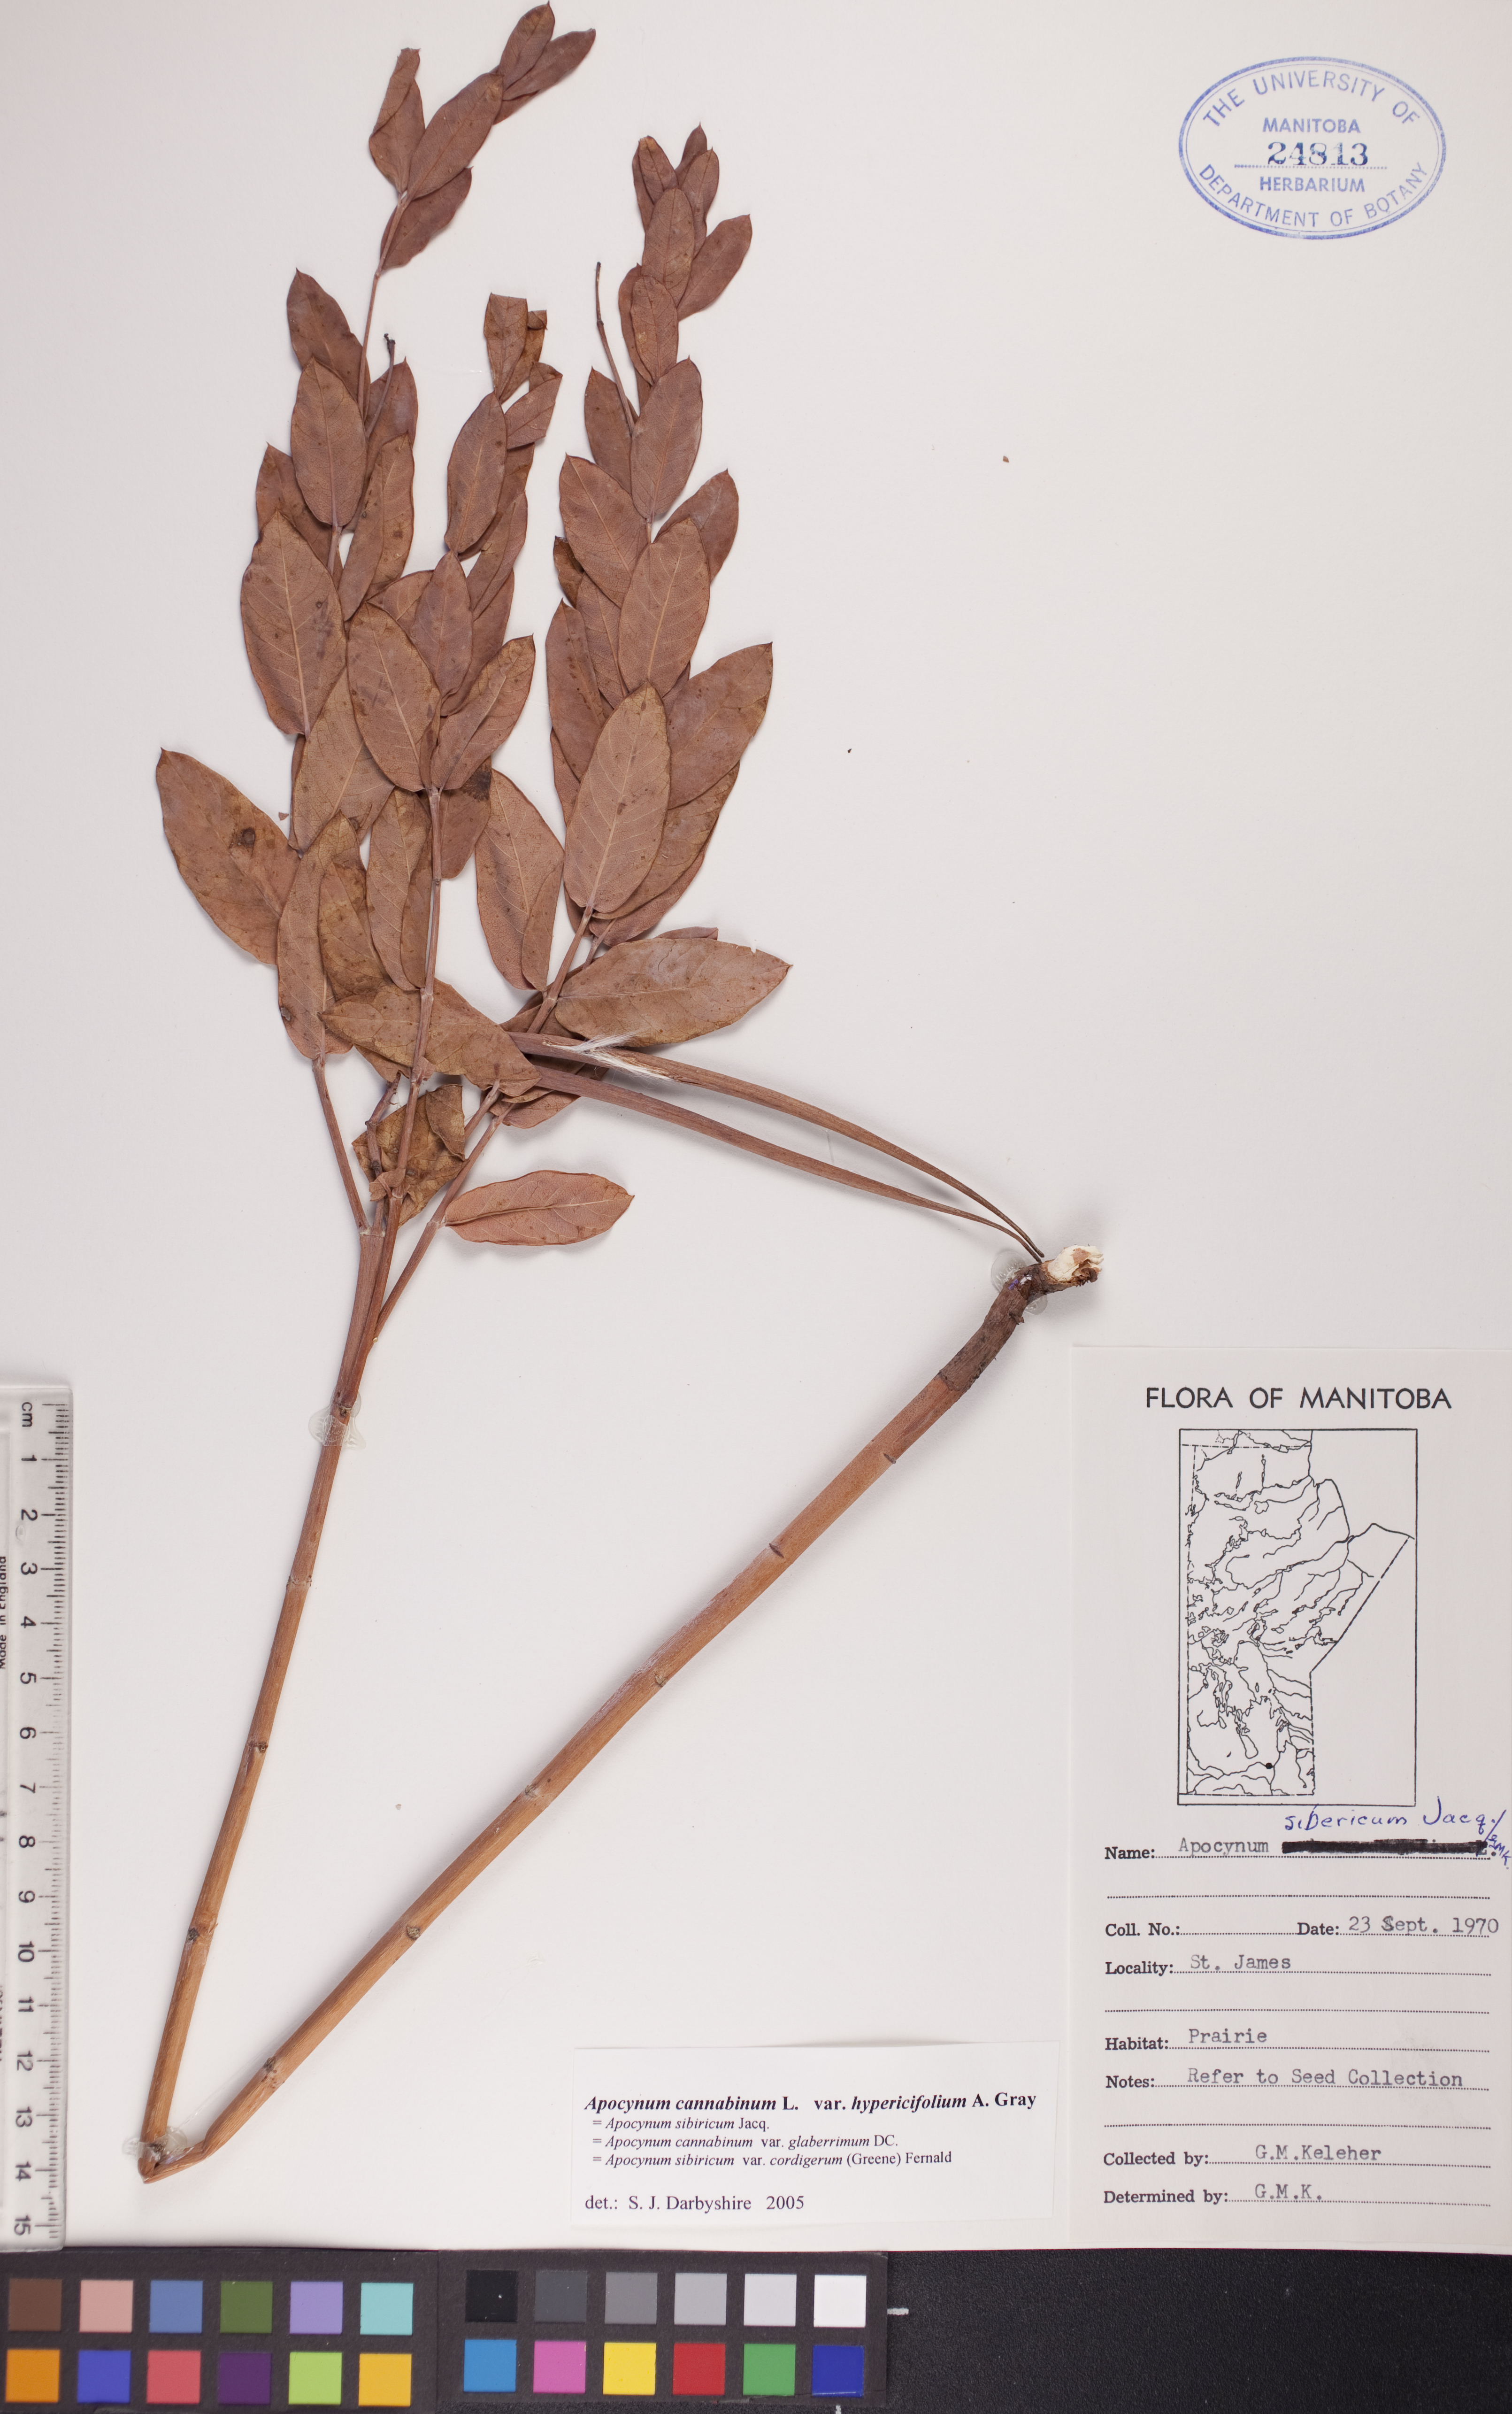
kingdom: Plantae
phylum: Tracheophyta
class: Magnoliopsida
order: Gentianales
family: Apocynaceae
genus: Apocynum
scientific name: Apocynum cannabinum
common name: Hemp dogbane
